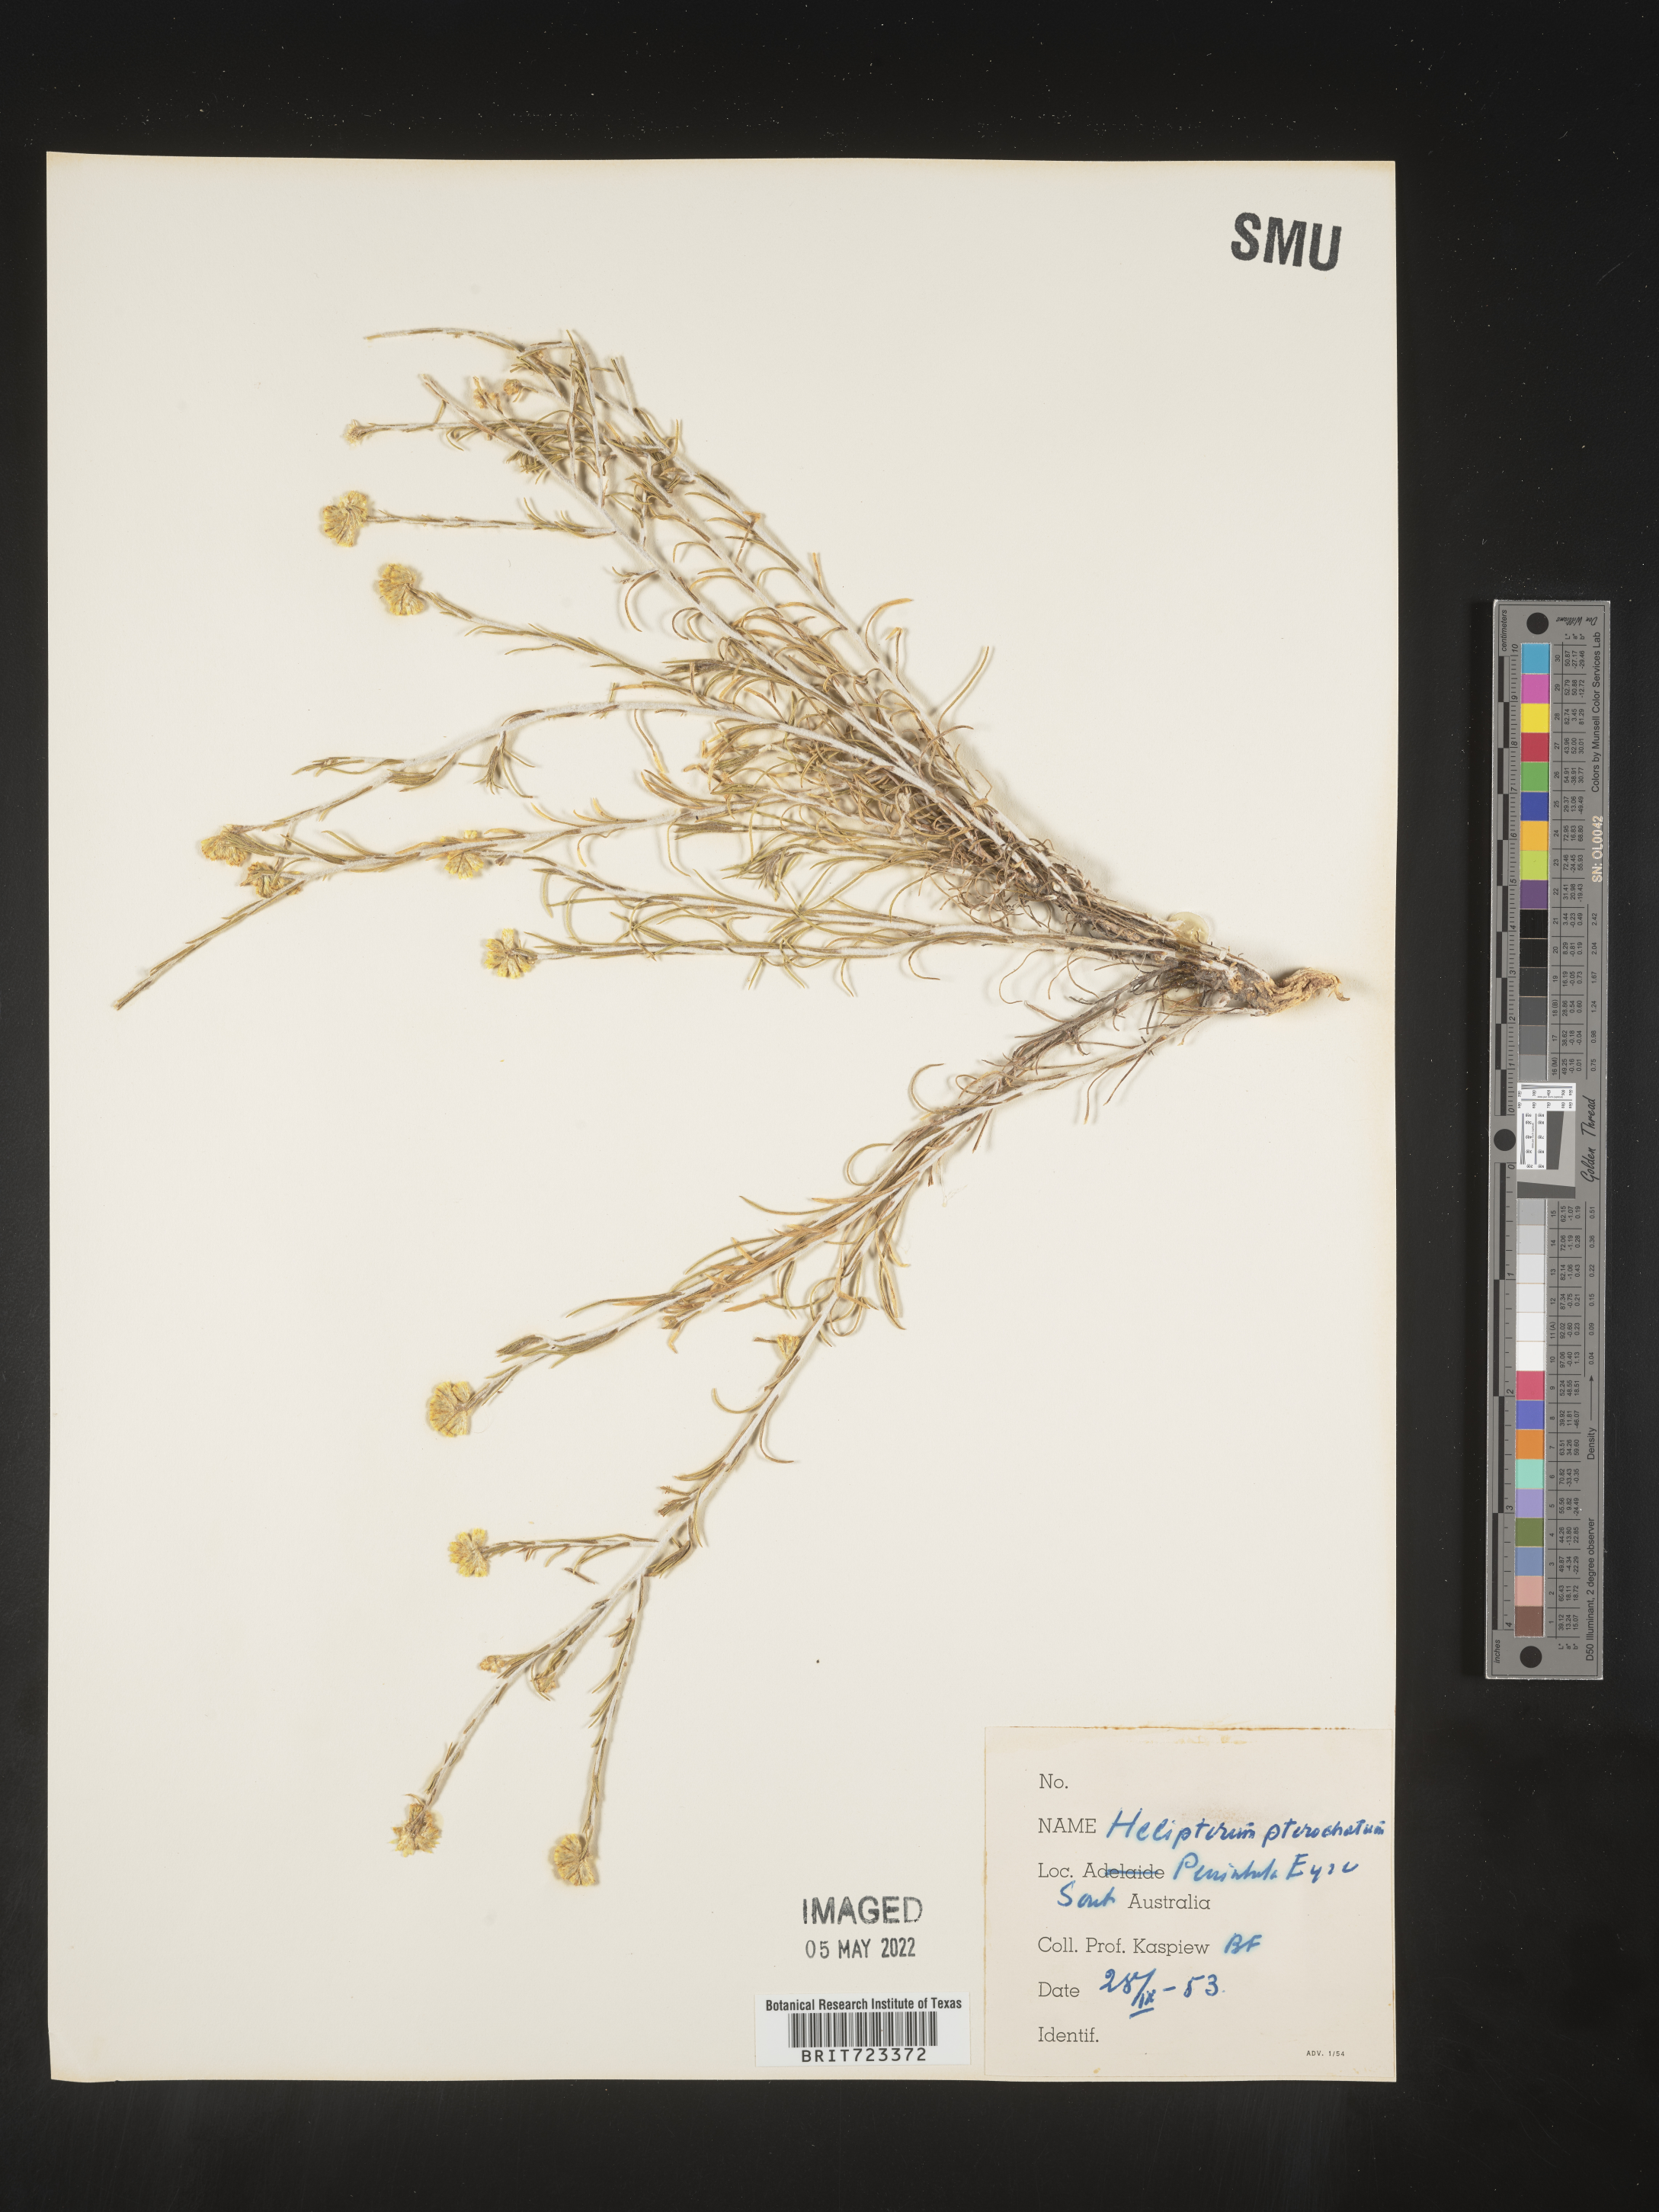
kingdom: Plantae
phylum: Tracheophyta
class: Magnoliopsida
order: Asterales
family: Asteraceae
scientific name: Asteraceae
